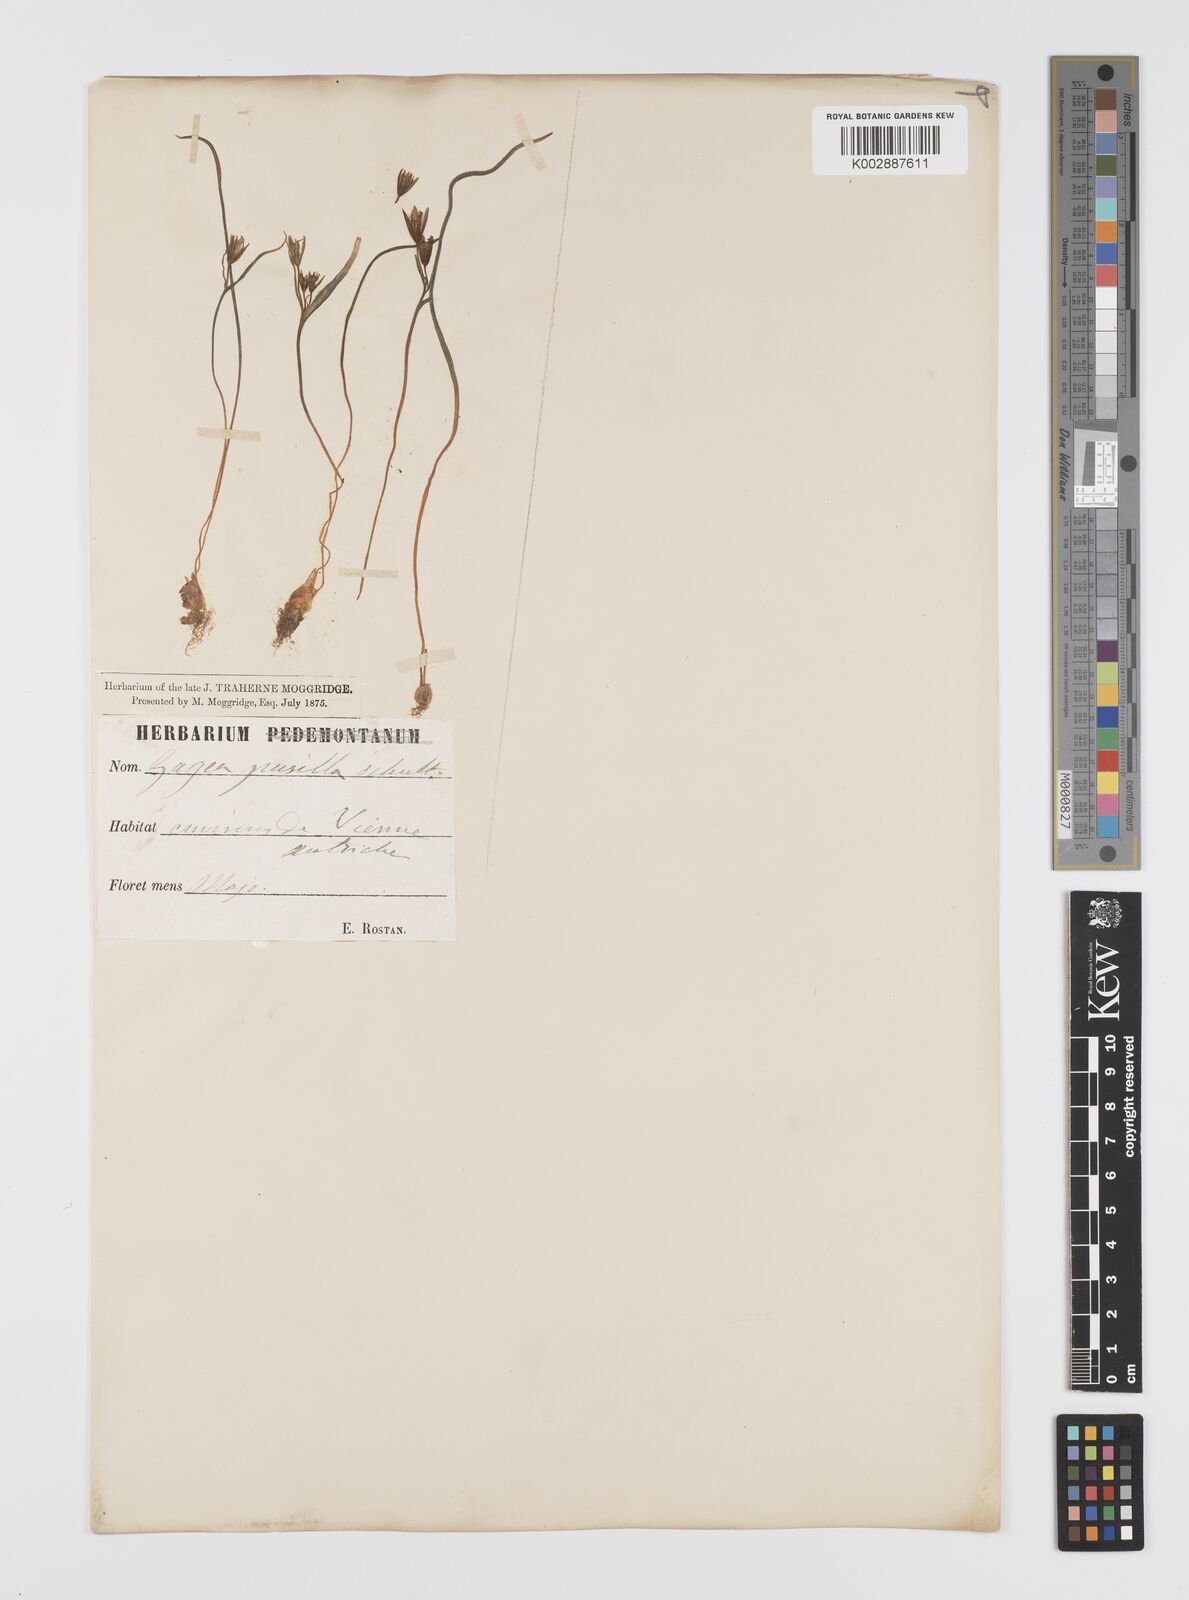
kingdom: Plantae
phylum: Tracheophyta
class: Liliopsida
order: Liliales
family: Liliaceae
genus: Gagea
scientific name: Gagea pusilla
